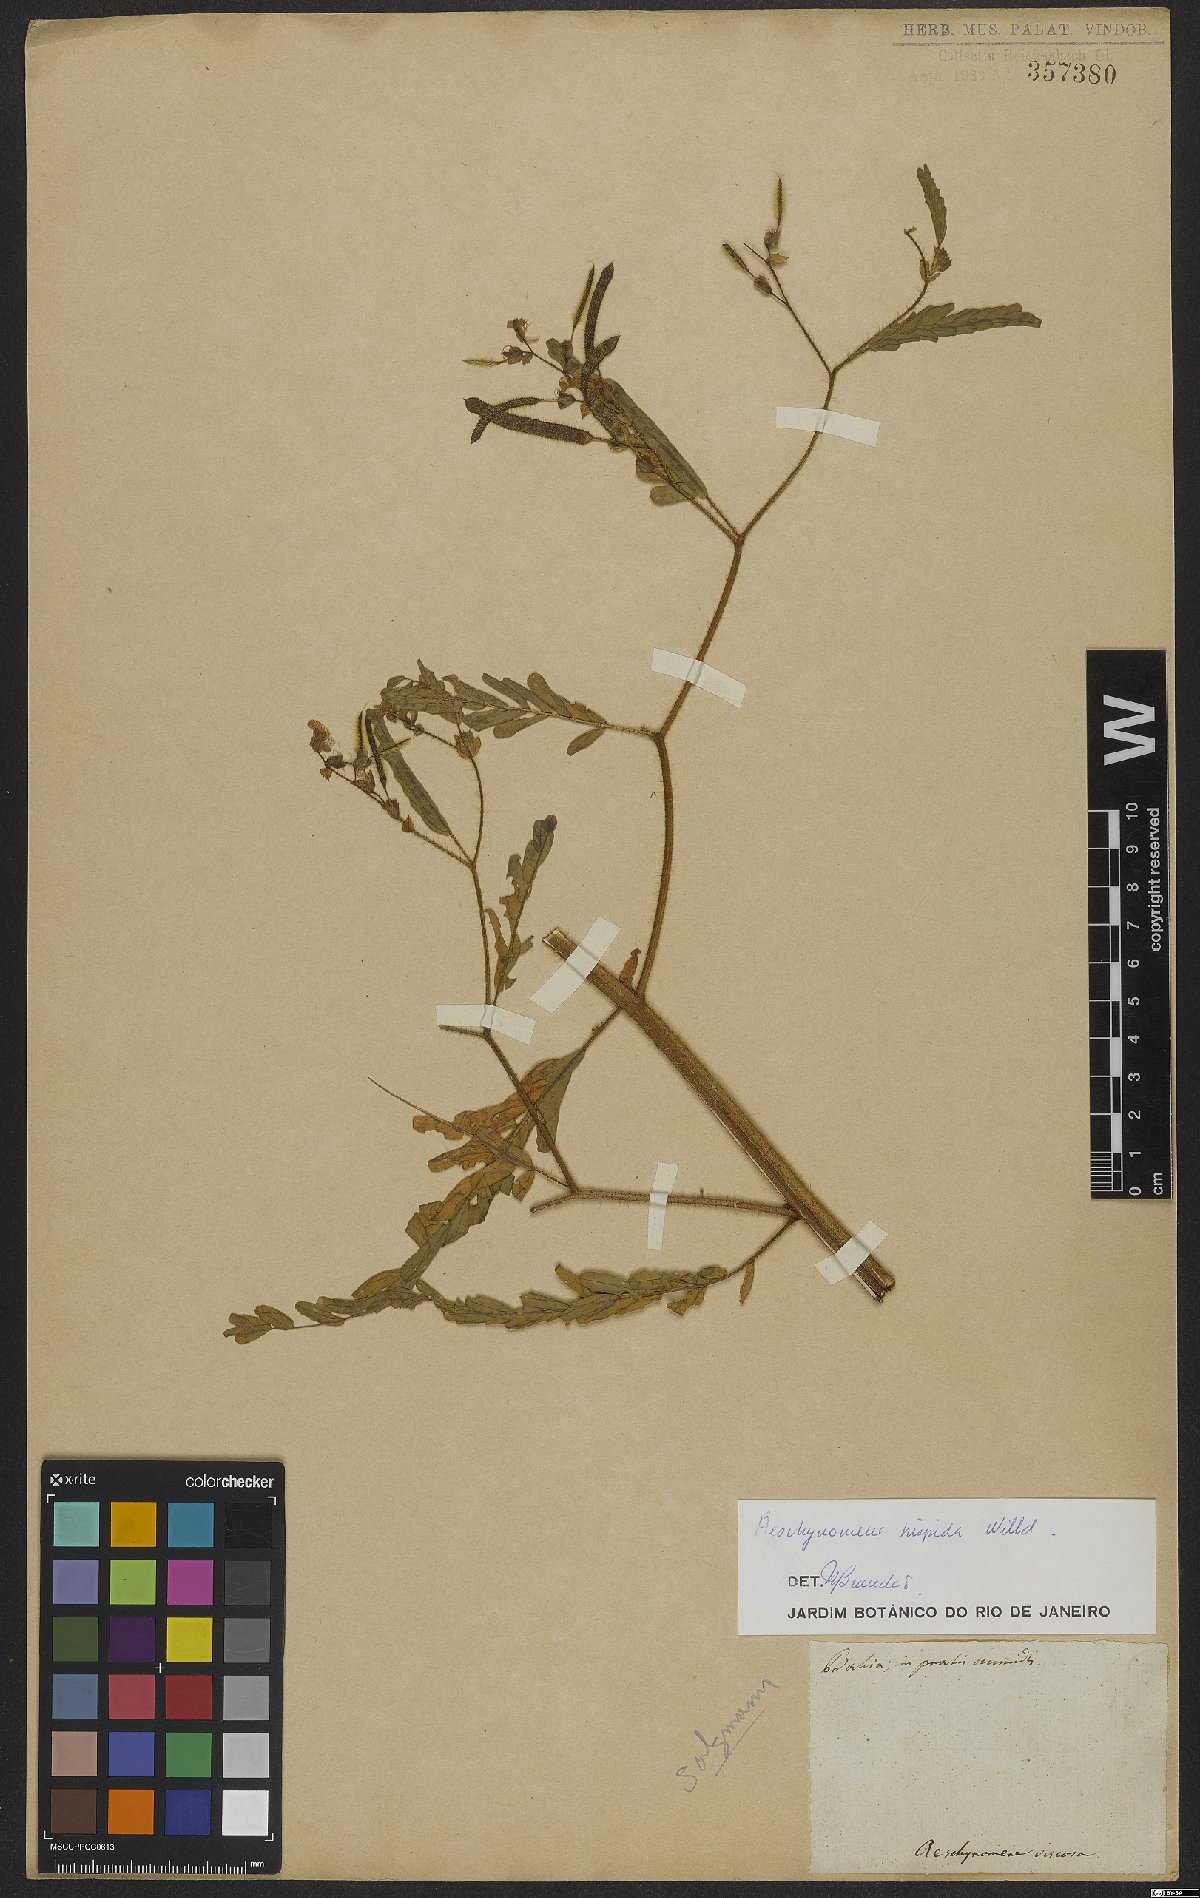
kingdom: Plantae
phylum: Tracheophyta
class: Magnoliopsida
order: Fabales
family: Fabaceae
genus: Aeschynomene
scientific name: Aeschynomene virginica
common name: Sensitive joint-vetch
